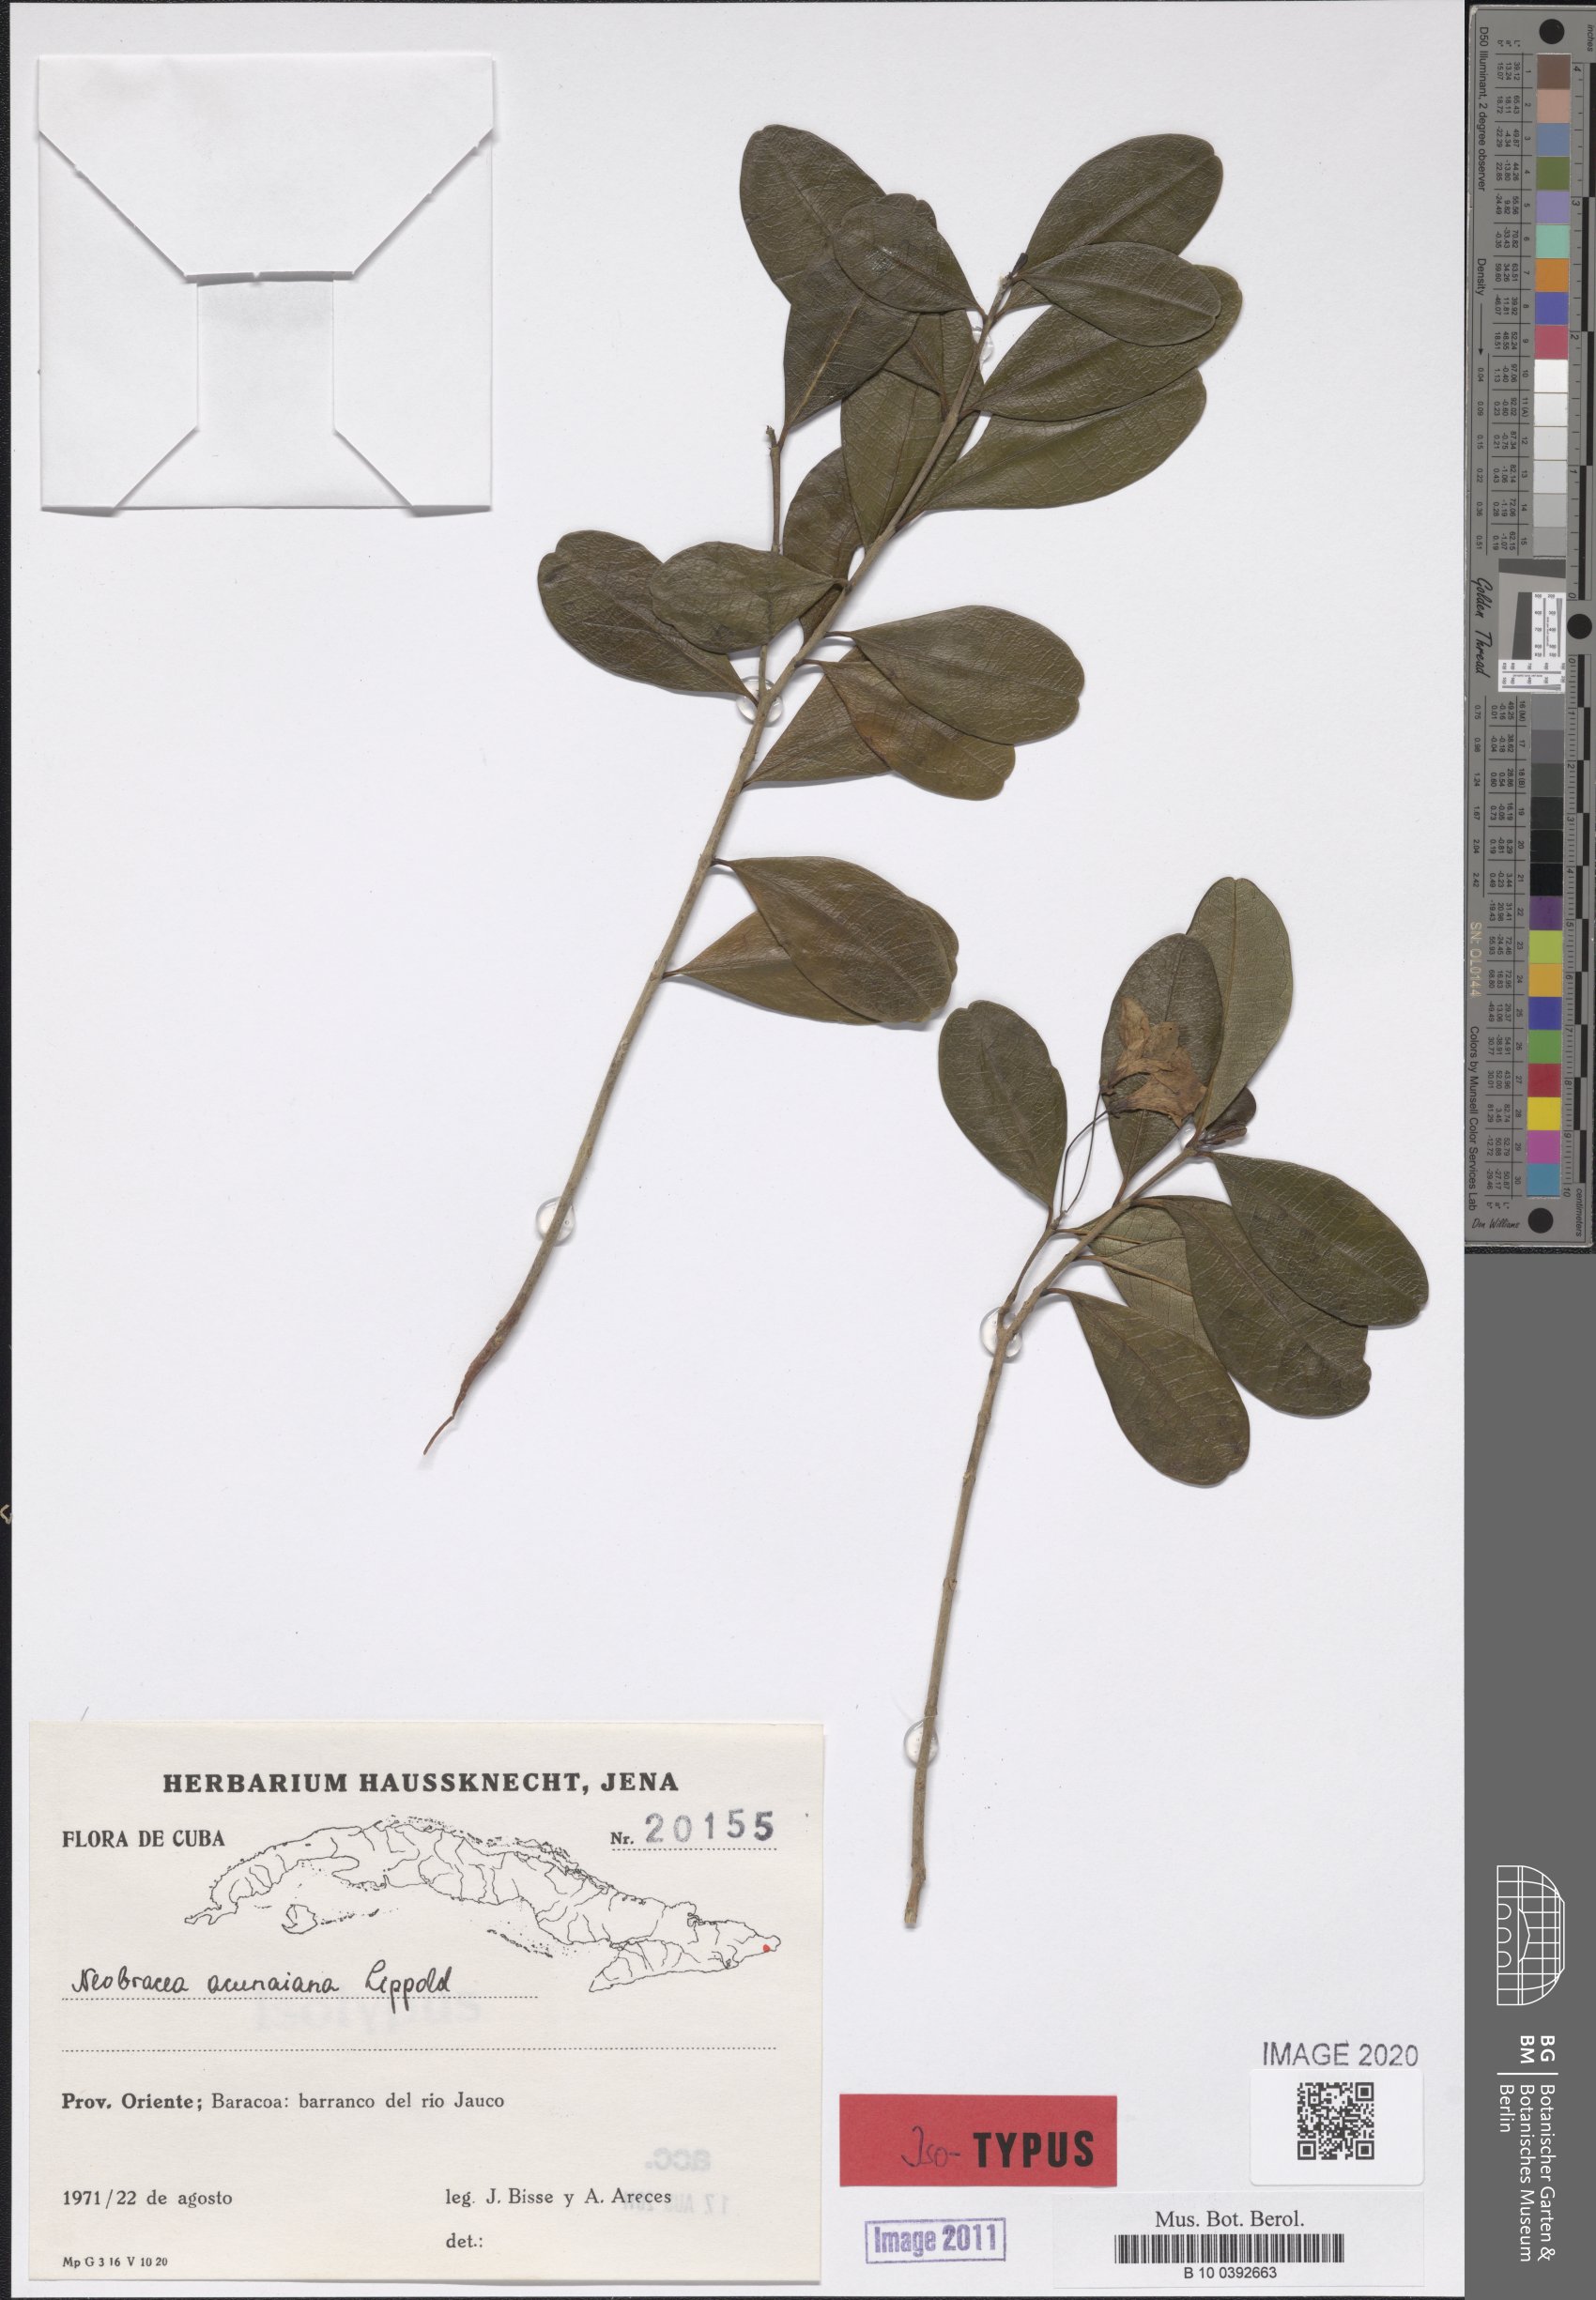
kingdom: Plantae
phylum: Tracheophyta
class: Magnoliopsida
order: Gentianales
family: Apocynaceae
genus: Neobracea
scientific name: Neobracea acunaiana
